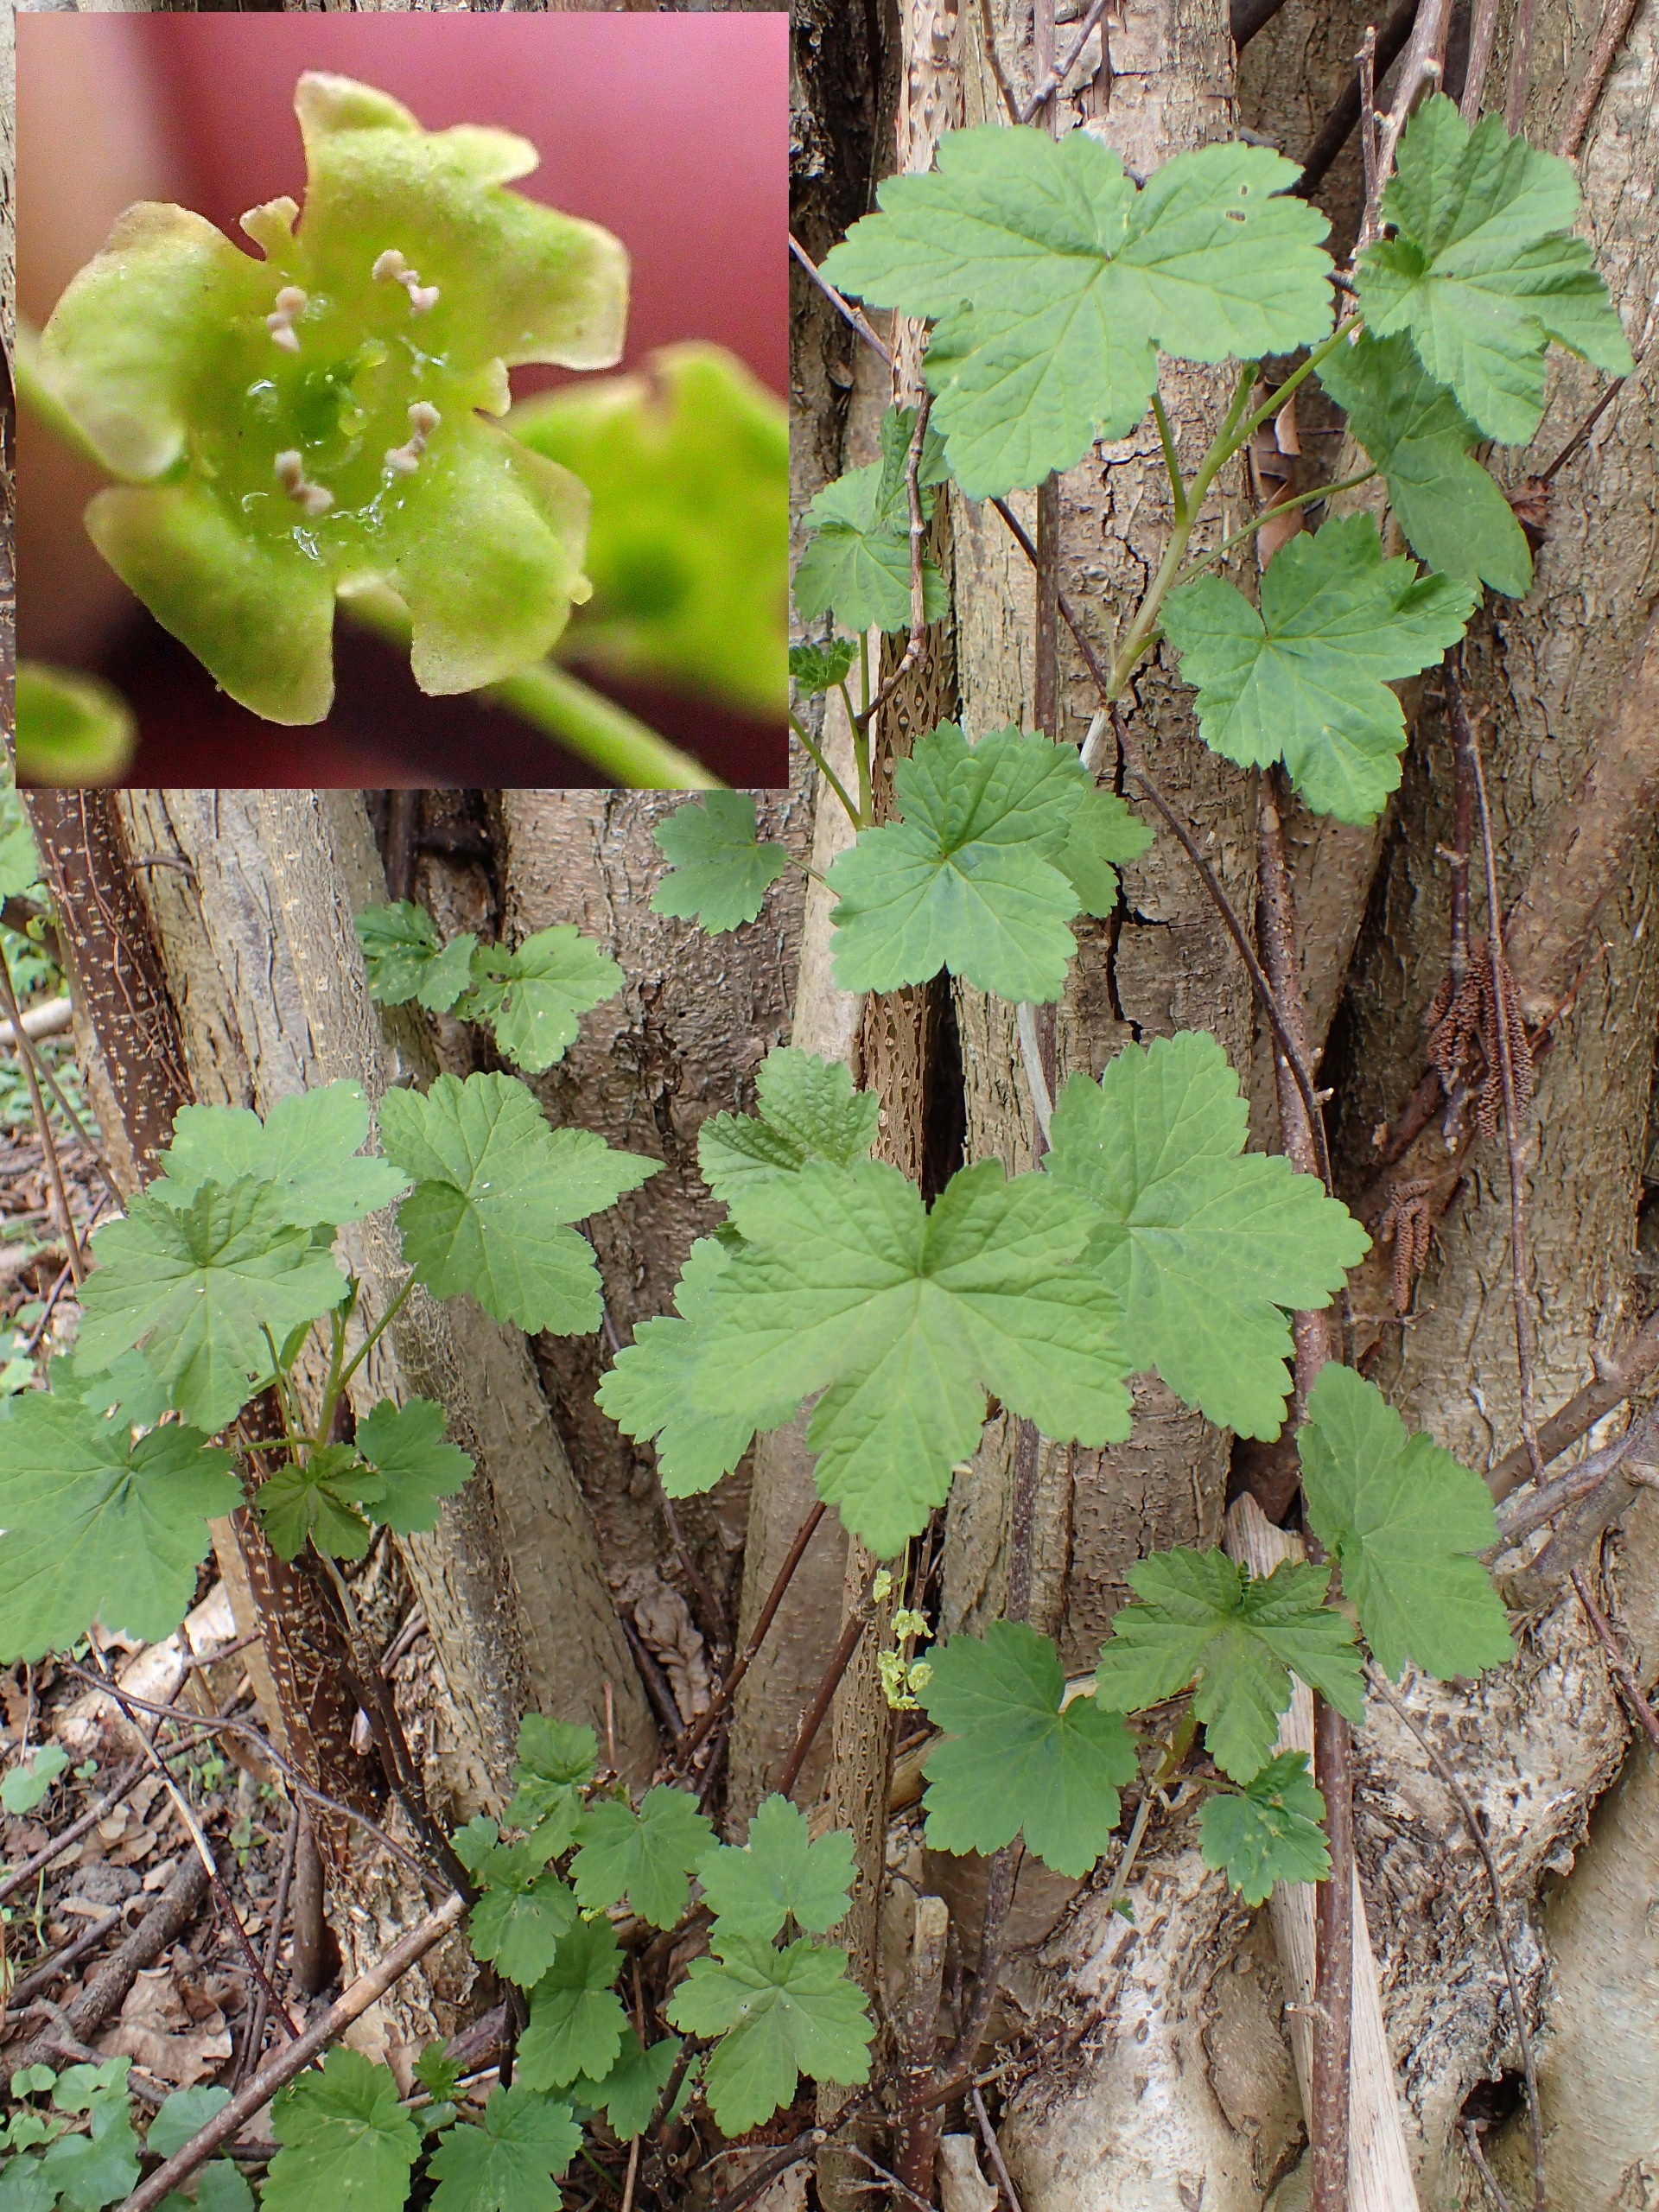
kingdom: Plantae
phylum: Tracheophyta
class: Magnoliopsida
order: Saxifragales
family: Grossulariaceae
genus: Ribes
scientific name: Ribes rubrum
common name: Have-ribs
